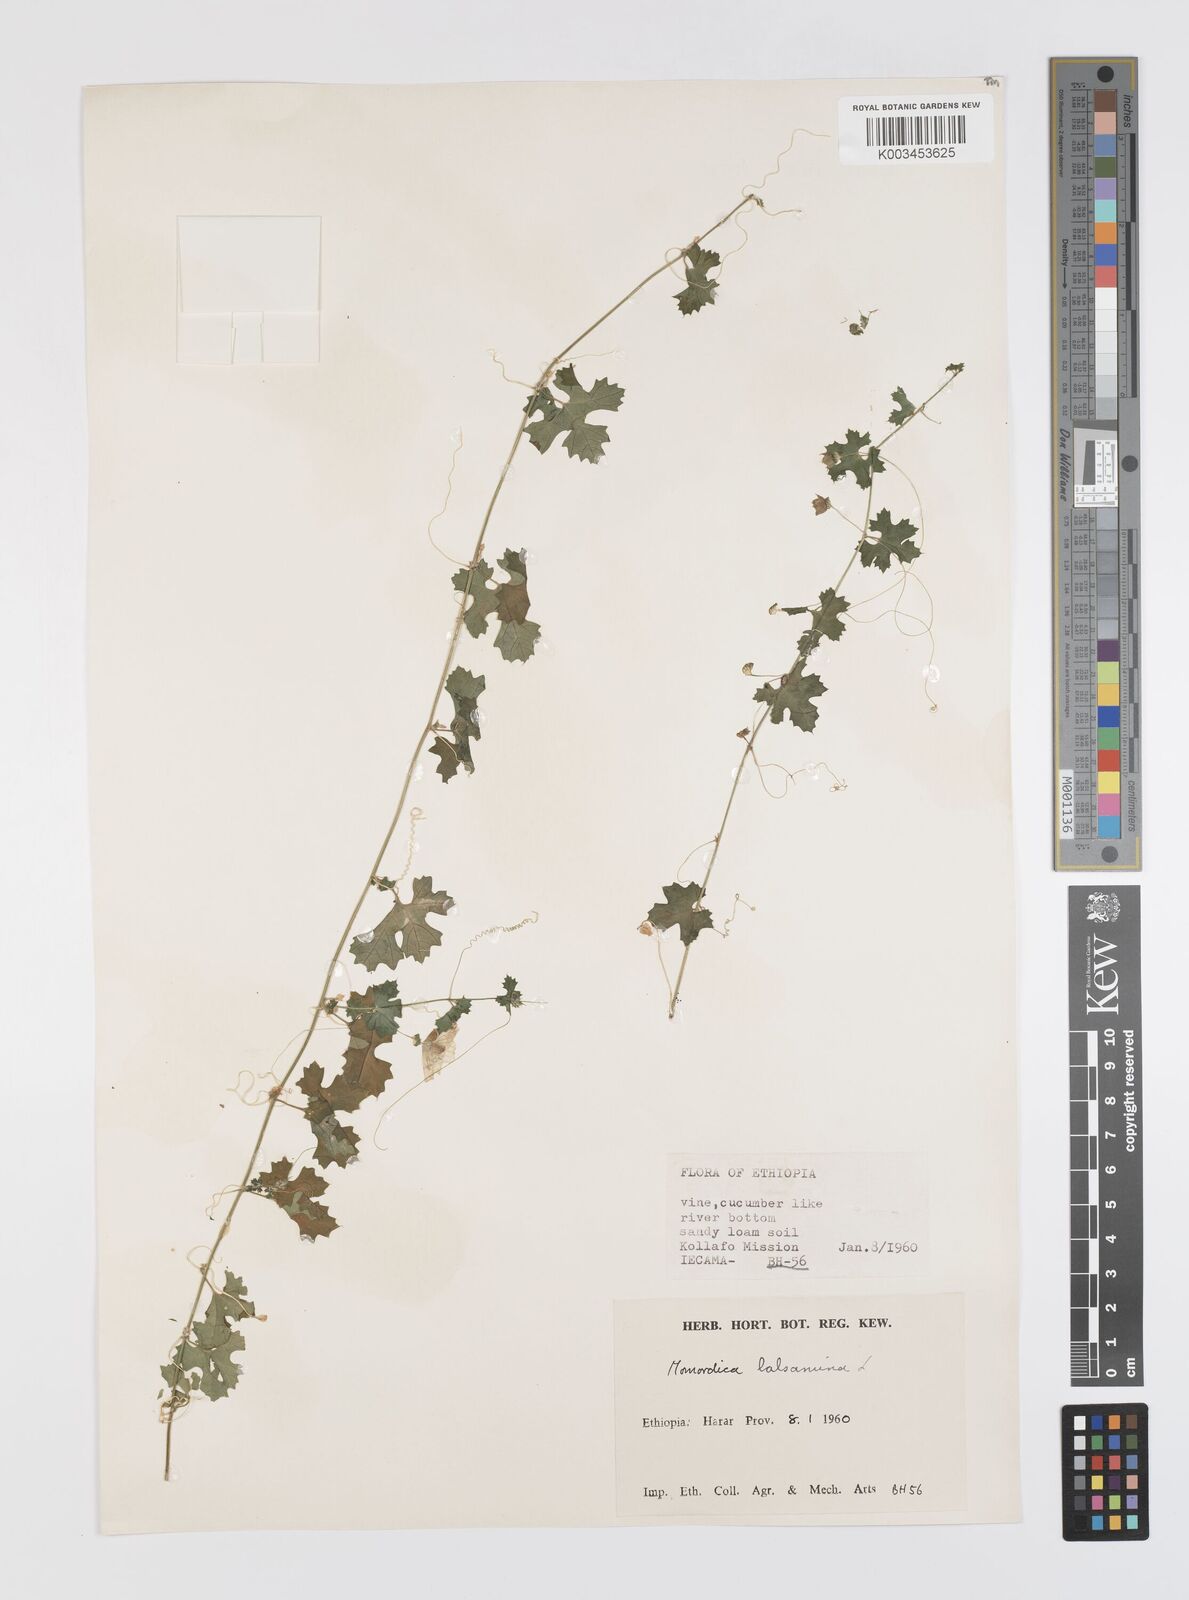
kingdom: Plantae
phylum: Tracheophyta
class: Magnoliopsida
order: Cucurbitales
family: Cucurbitaceae
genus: Momordica
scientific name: Momordica balsamina
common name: Southern balsampear
